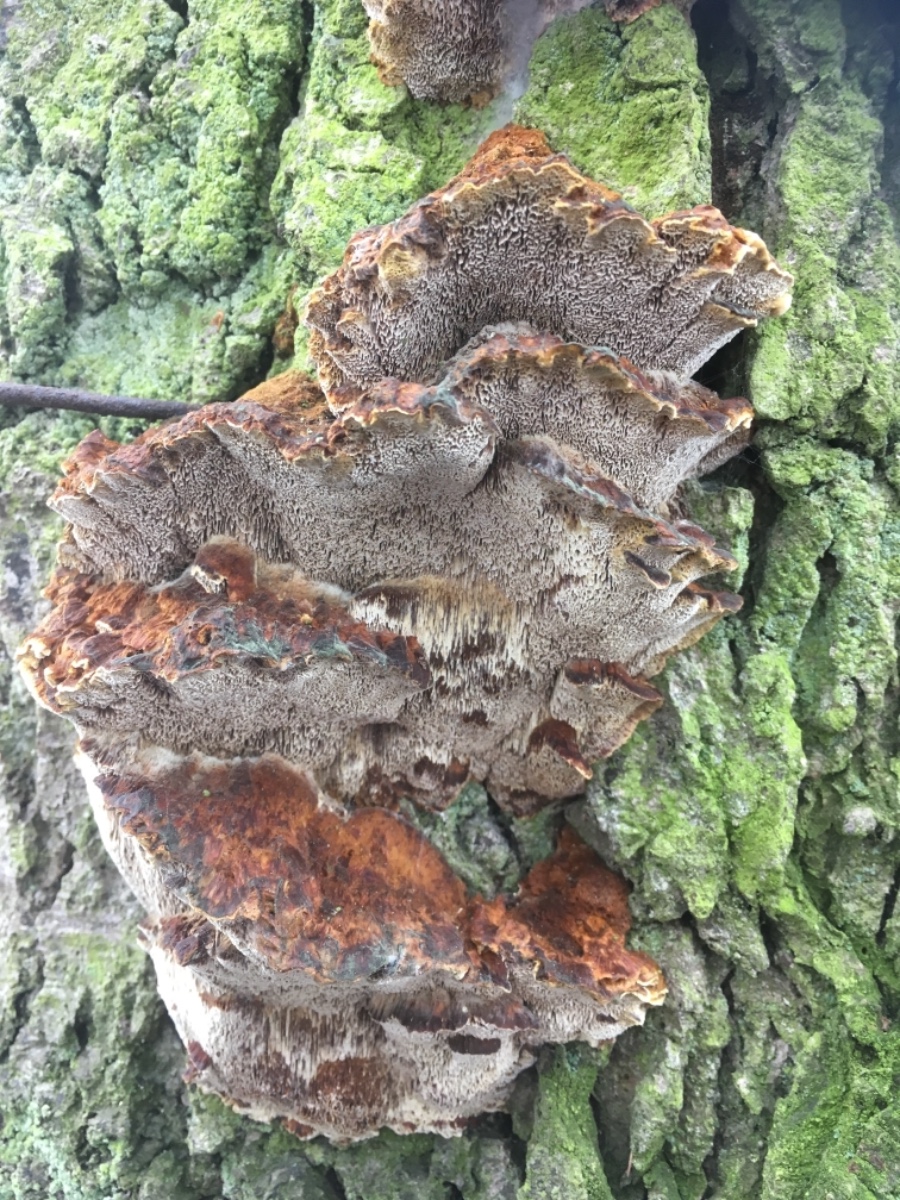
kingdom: Fungi
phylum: Basidiomycota
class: Agaricomycetes
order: Hymenochaetales
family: Hymenochaetaceae
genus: Xanthoporia
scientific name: Xanthoporia radiata
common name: elle-spejlporesvamp
